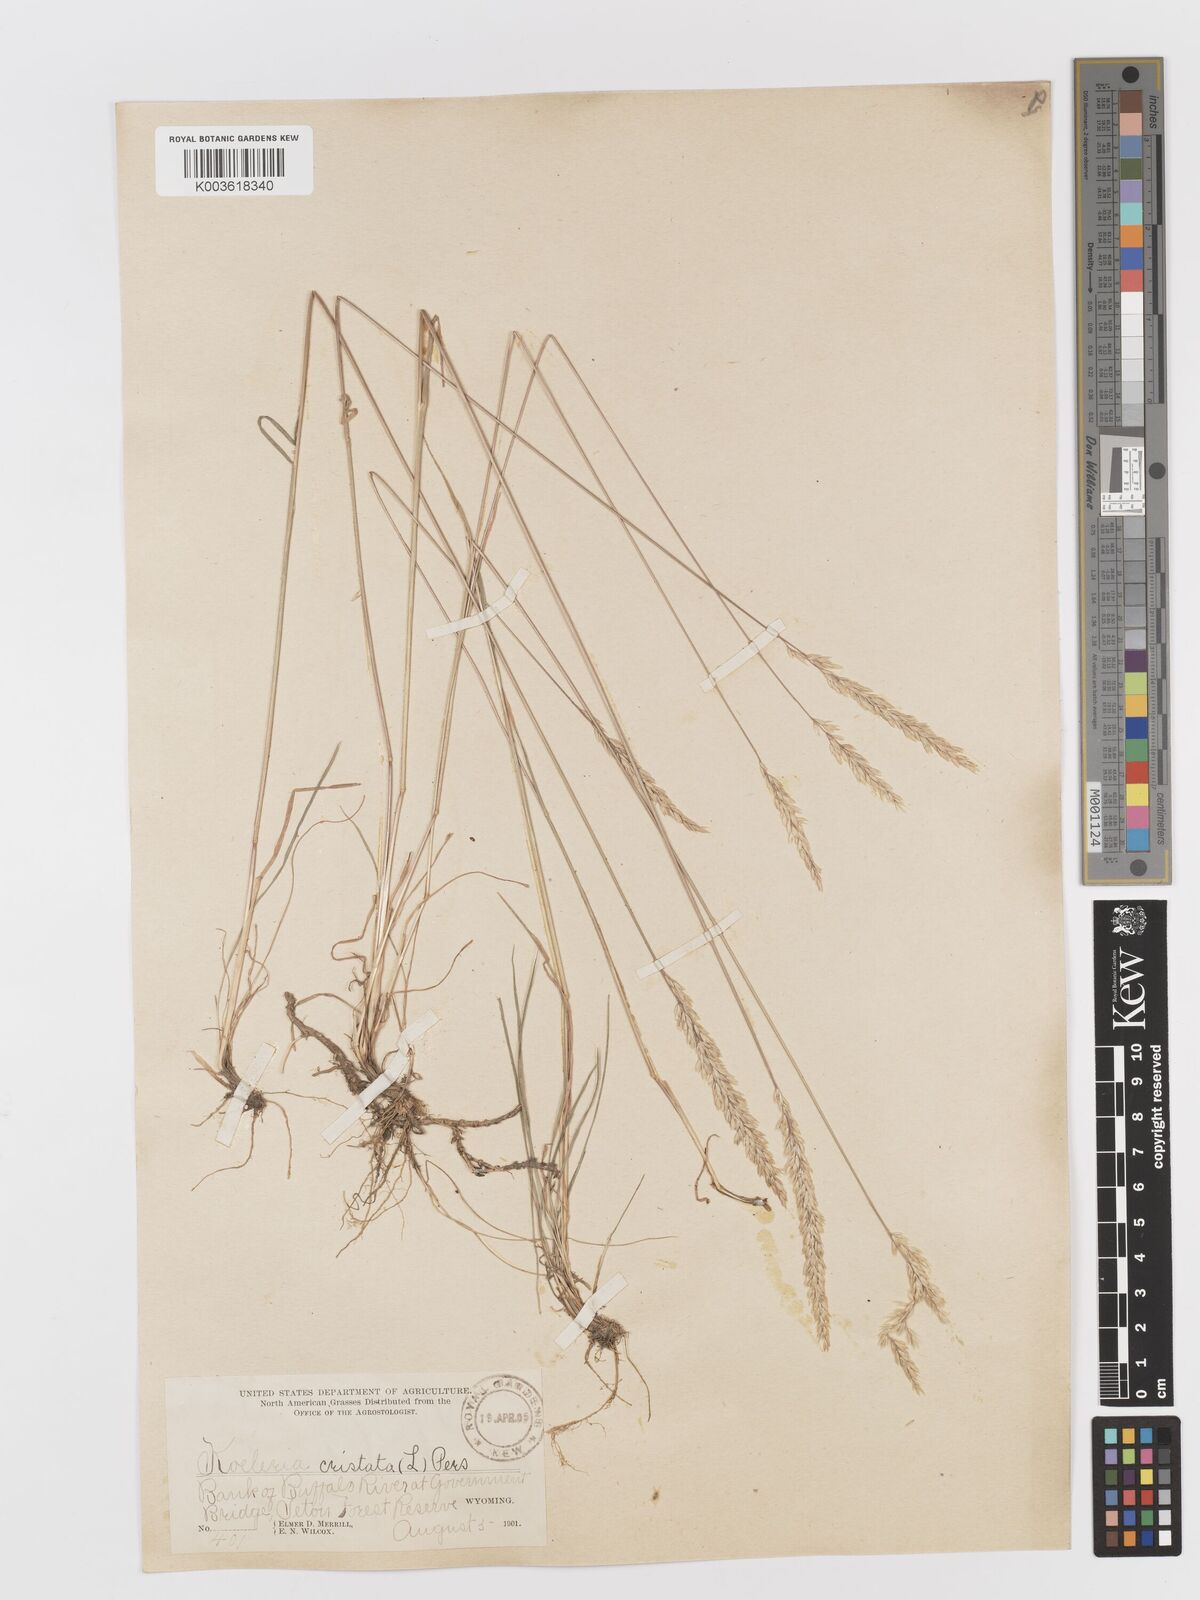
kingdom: Plantae
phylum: Tracheophyta
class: Liliopsida
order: Poales
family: Poaceae
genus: Koeleria
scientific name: Koeleria
